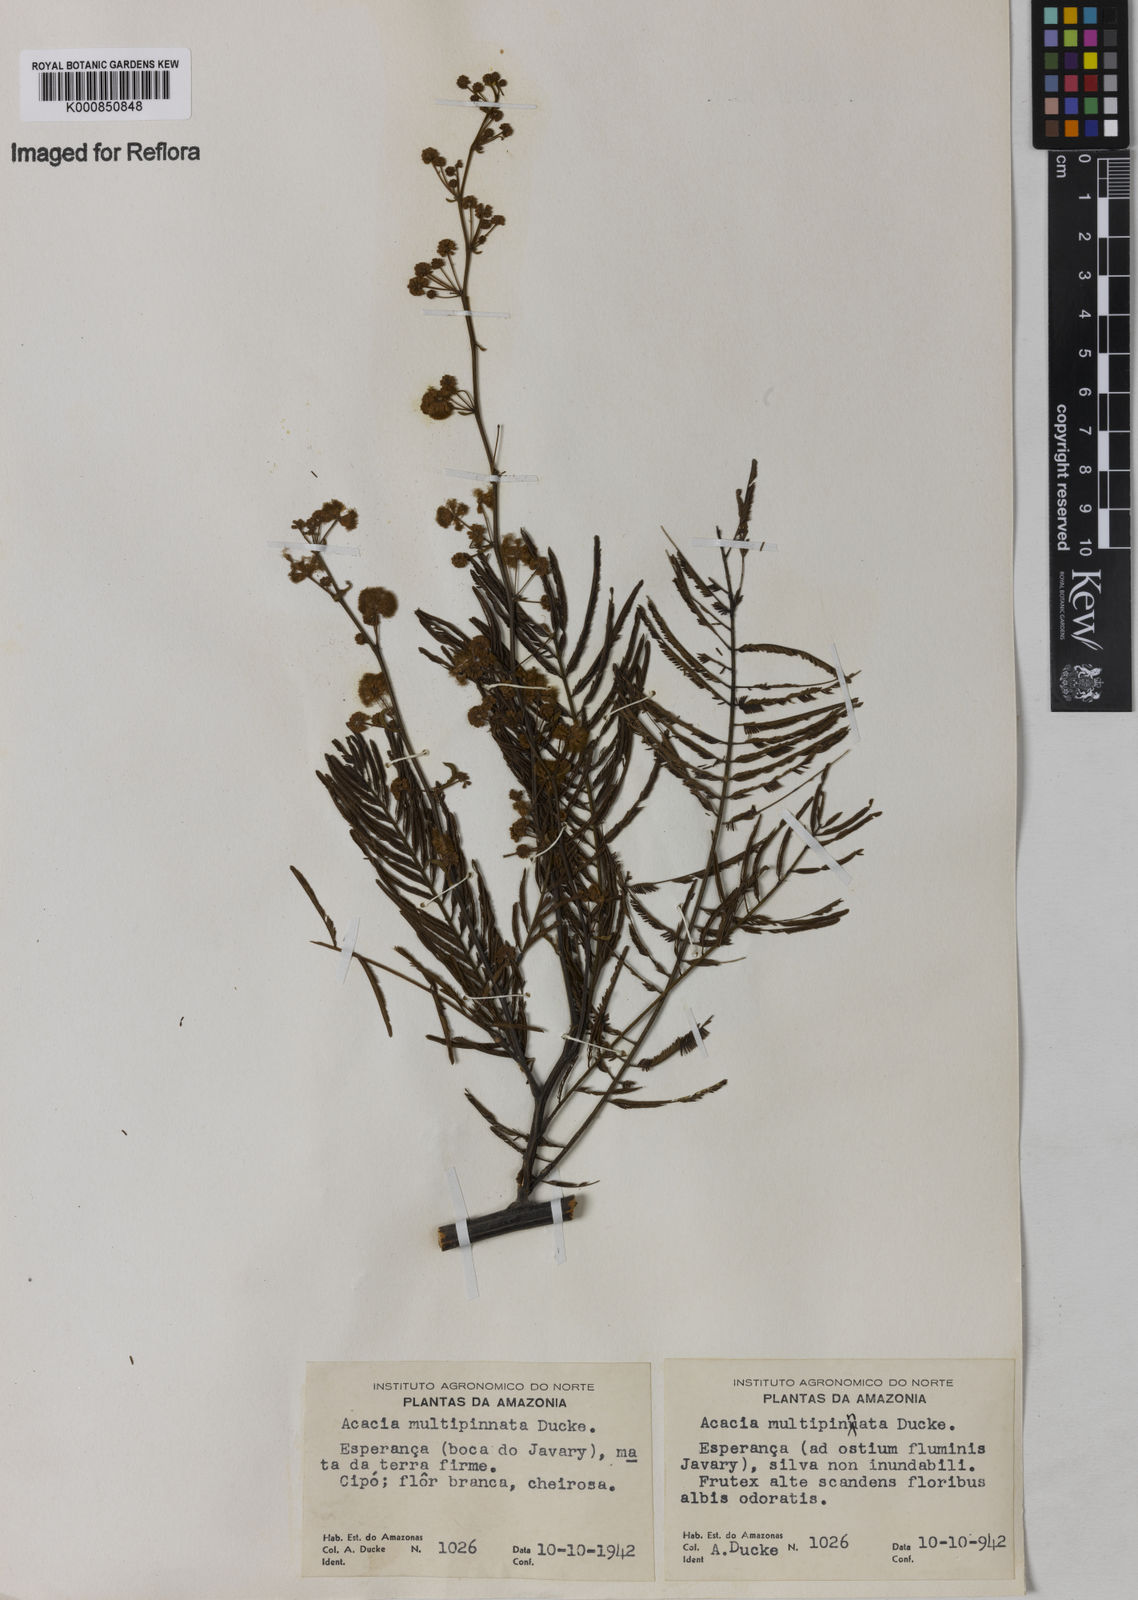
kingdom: Plantae
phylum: Tracheophyta
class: Magnoliopsida
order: Fabales
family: Fabaceae
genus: Senegalia
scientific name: Senegalia paniculata
